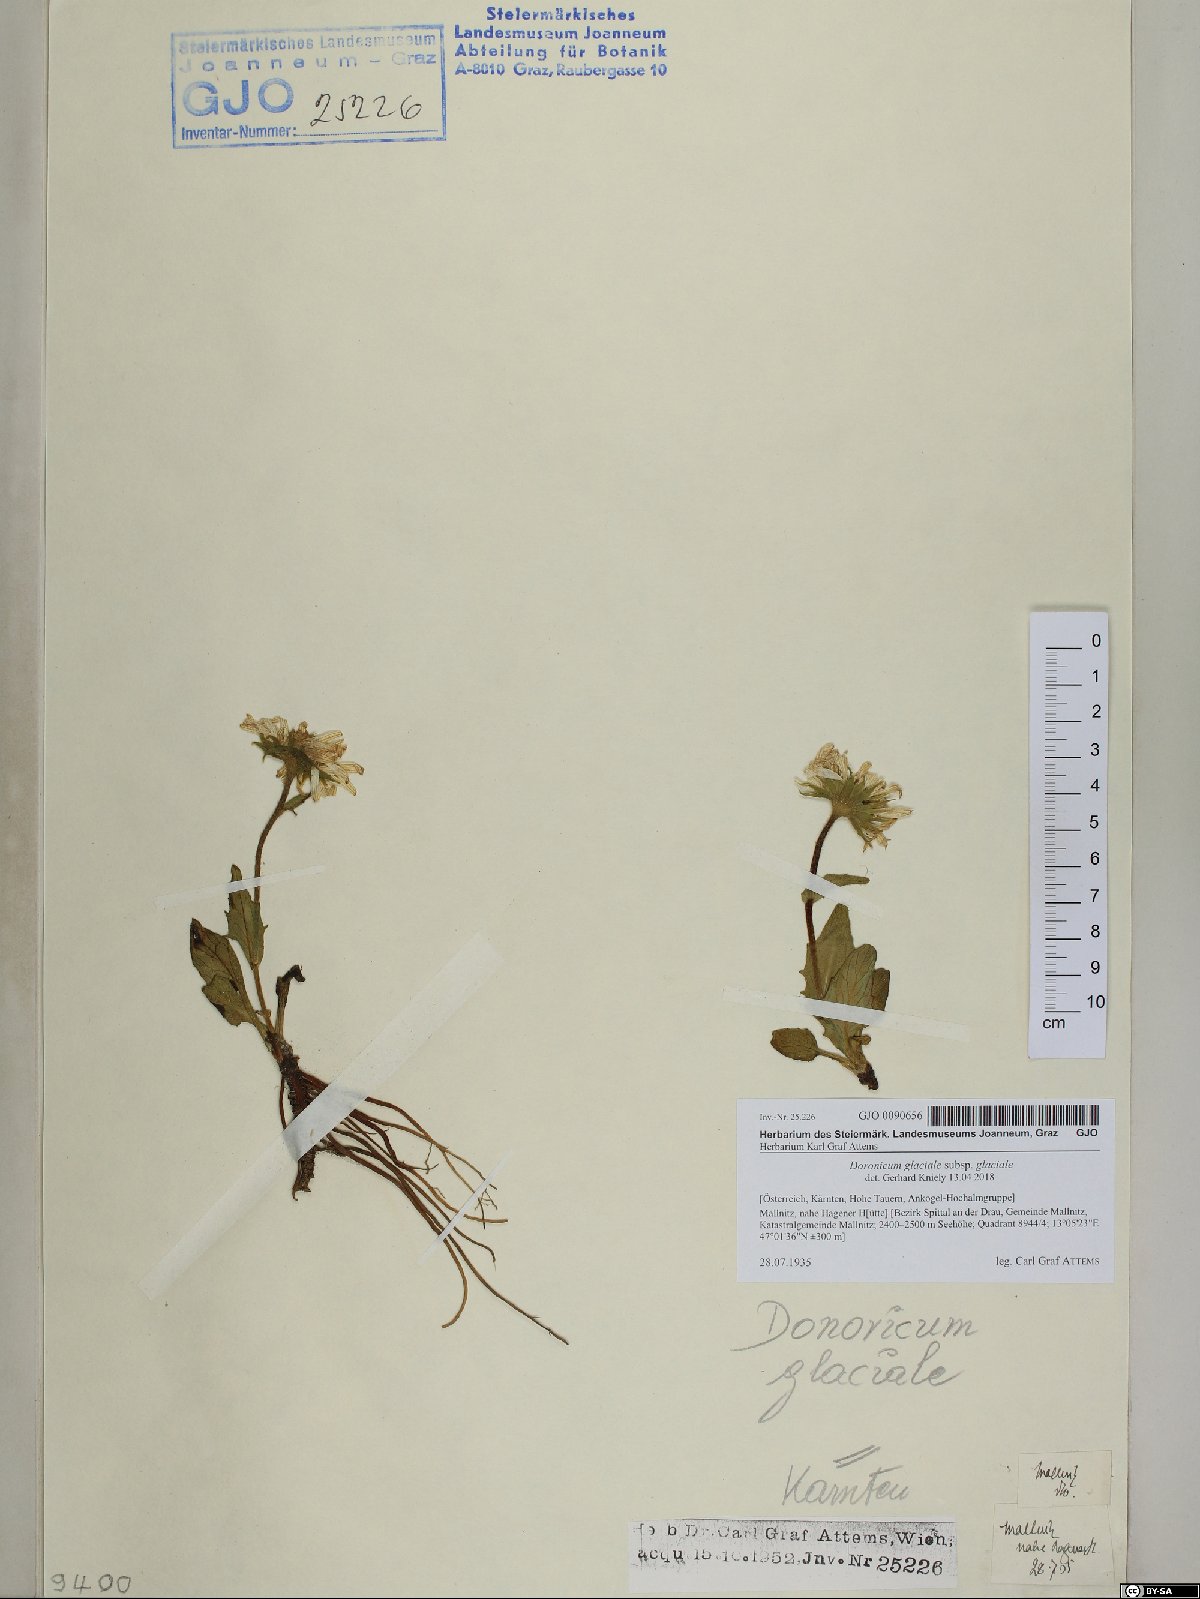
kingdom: Plantae
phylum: Tracheophyta
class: Magnoliopsida
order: Asterales
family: Asteraceae
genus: Doronicum
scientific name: Doronicum glaciale
